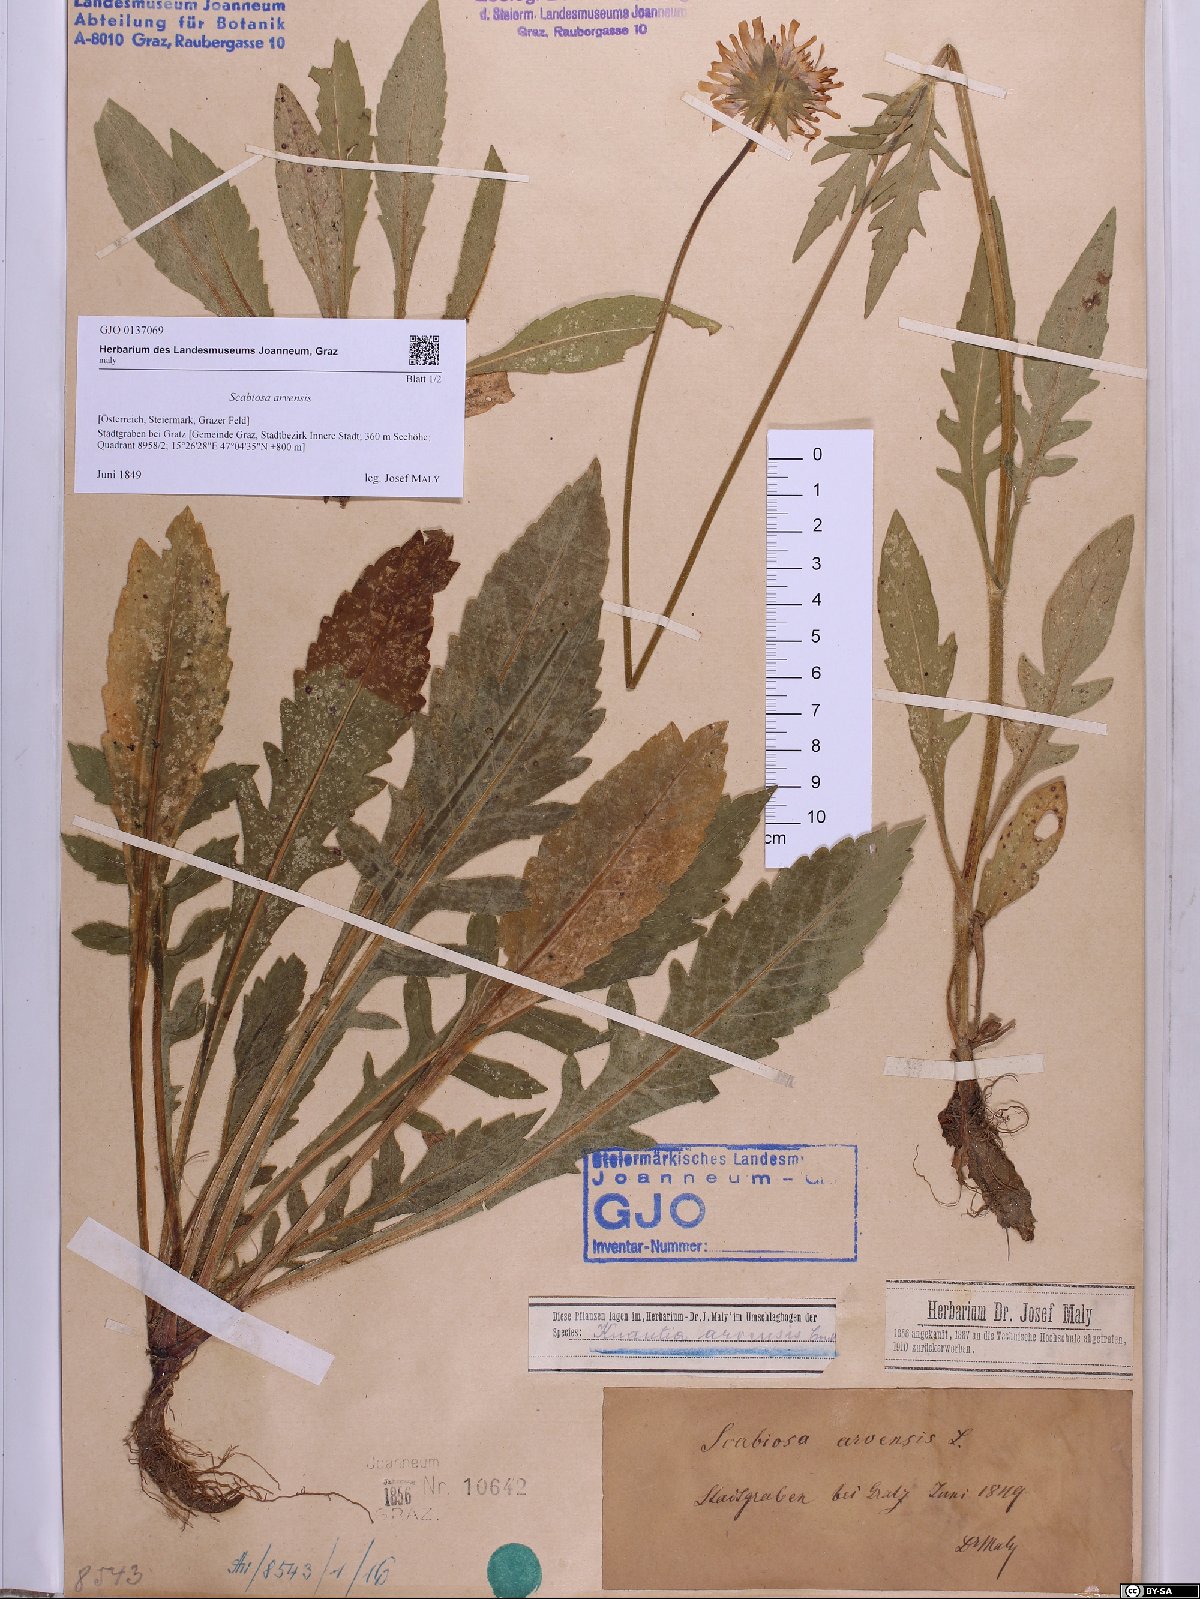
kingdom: Plantae
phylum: Tracheophyta
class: Magnoliopsida
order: Dipsacales
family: Caprifoliaceae
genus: Knautia
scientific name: Knautia arvensis
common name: Field scabiosa
